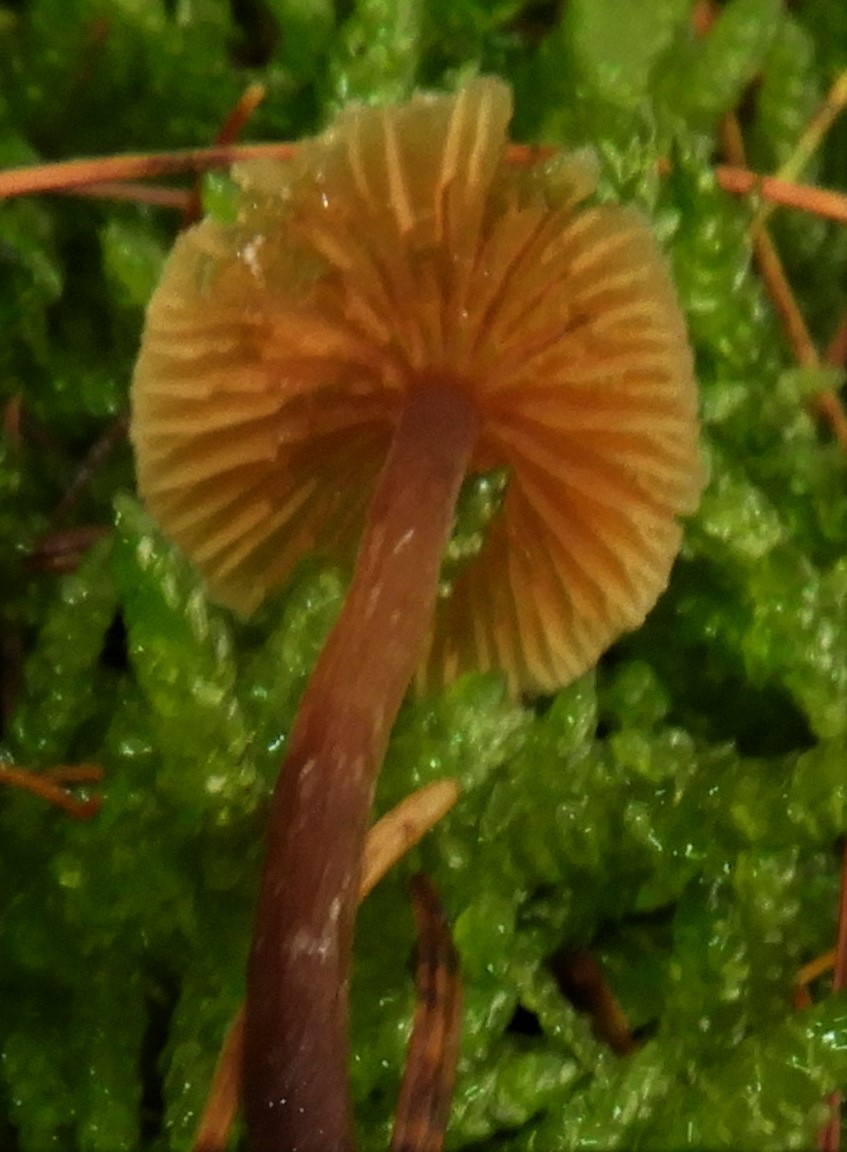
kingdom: Fungi
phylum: Basidiomycota
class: Agaricomycetes
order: Agaricales
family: Hymenogastraceae
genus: Galerina
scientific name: Galerina
